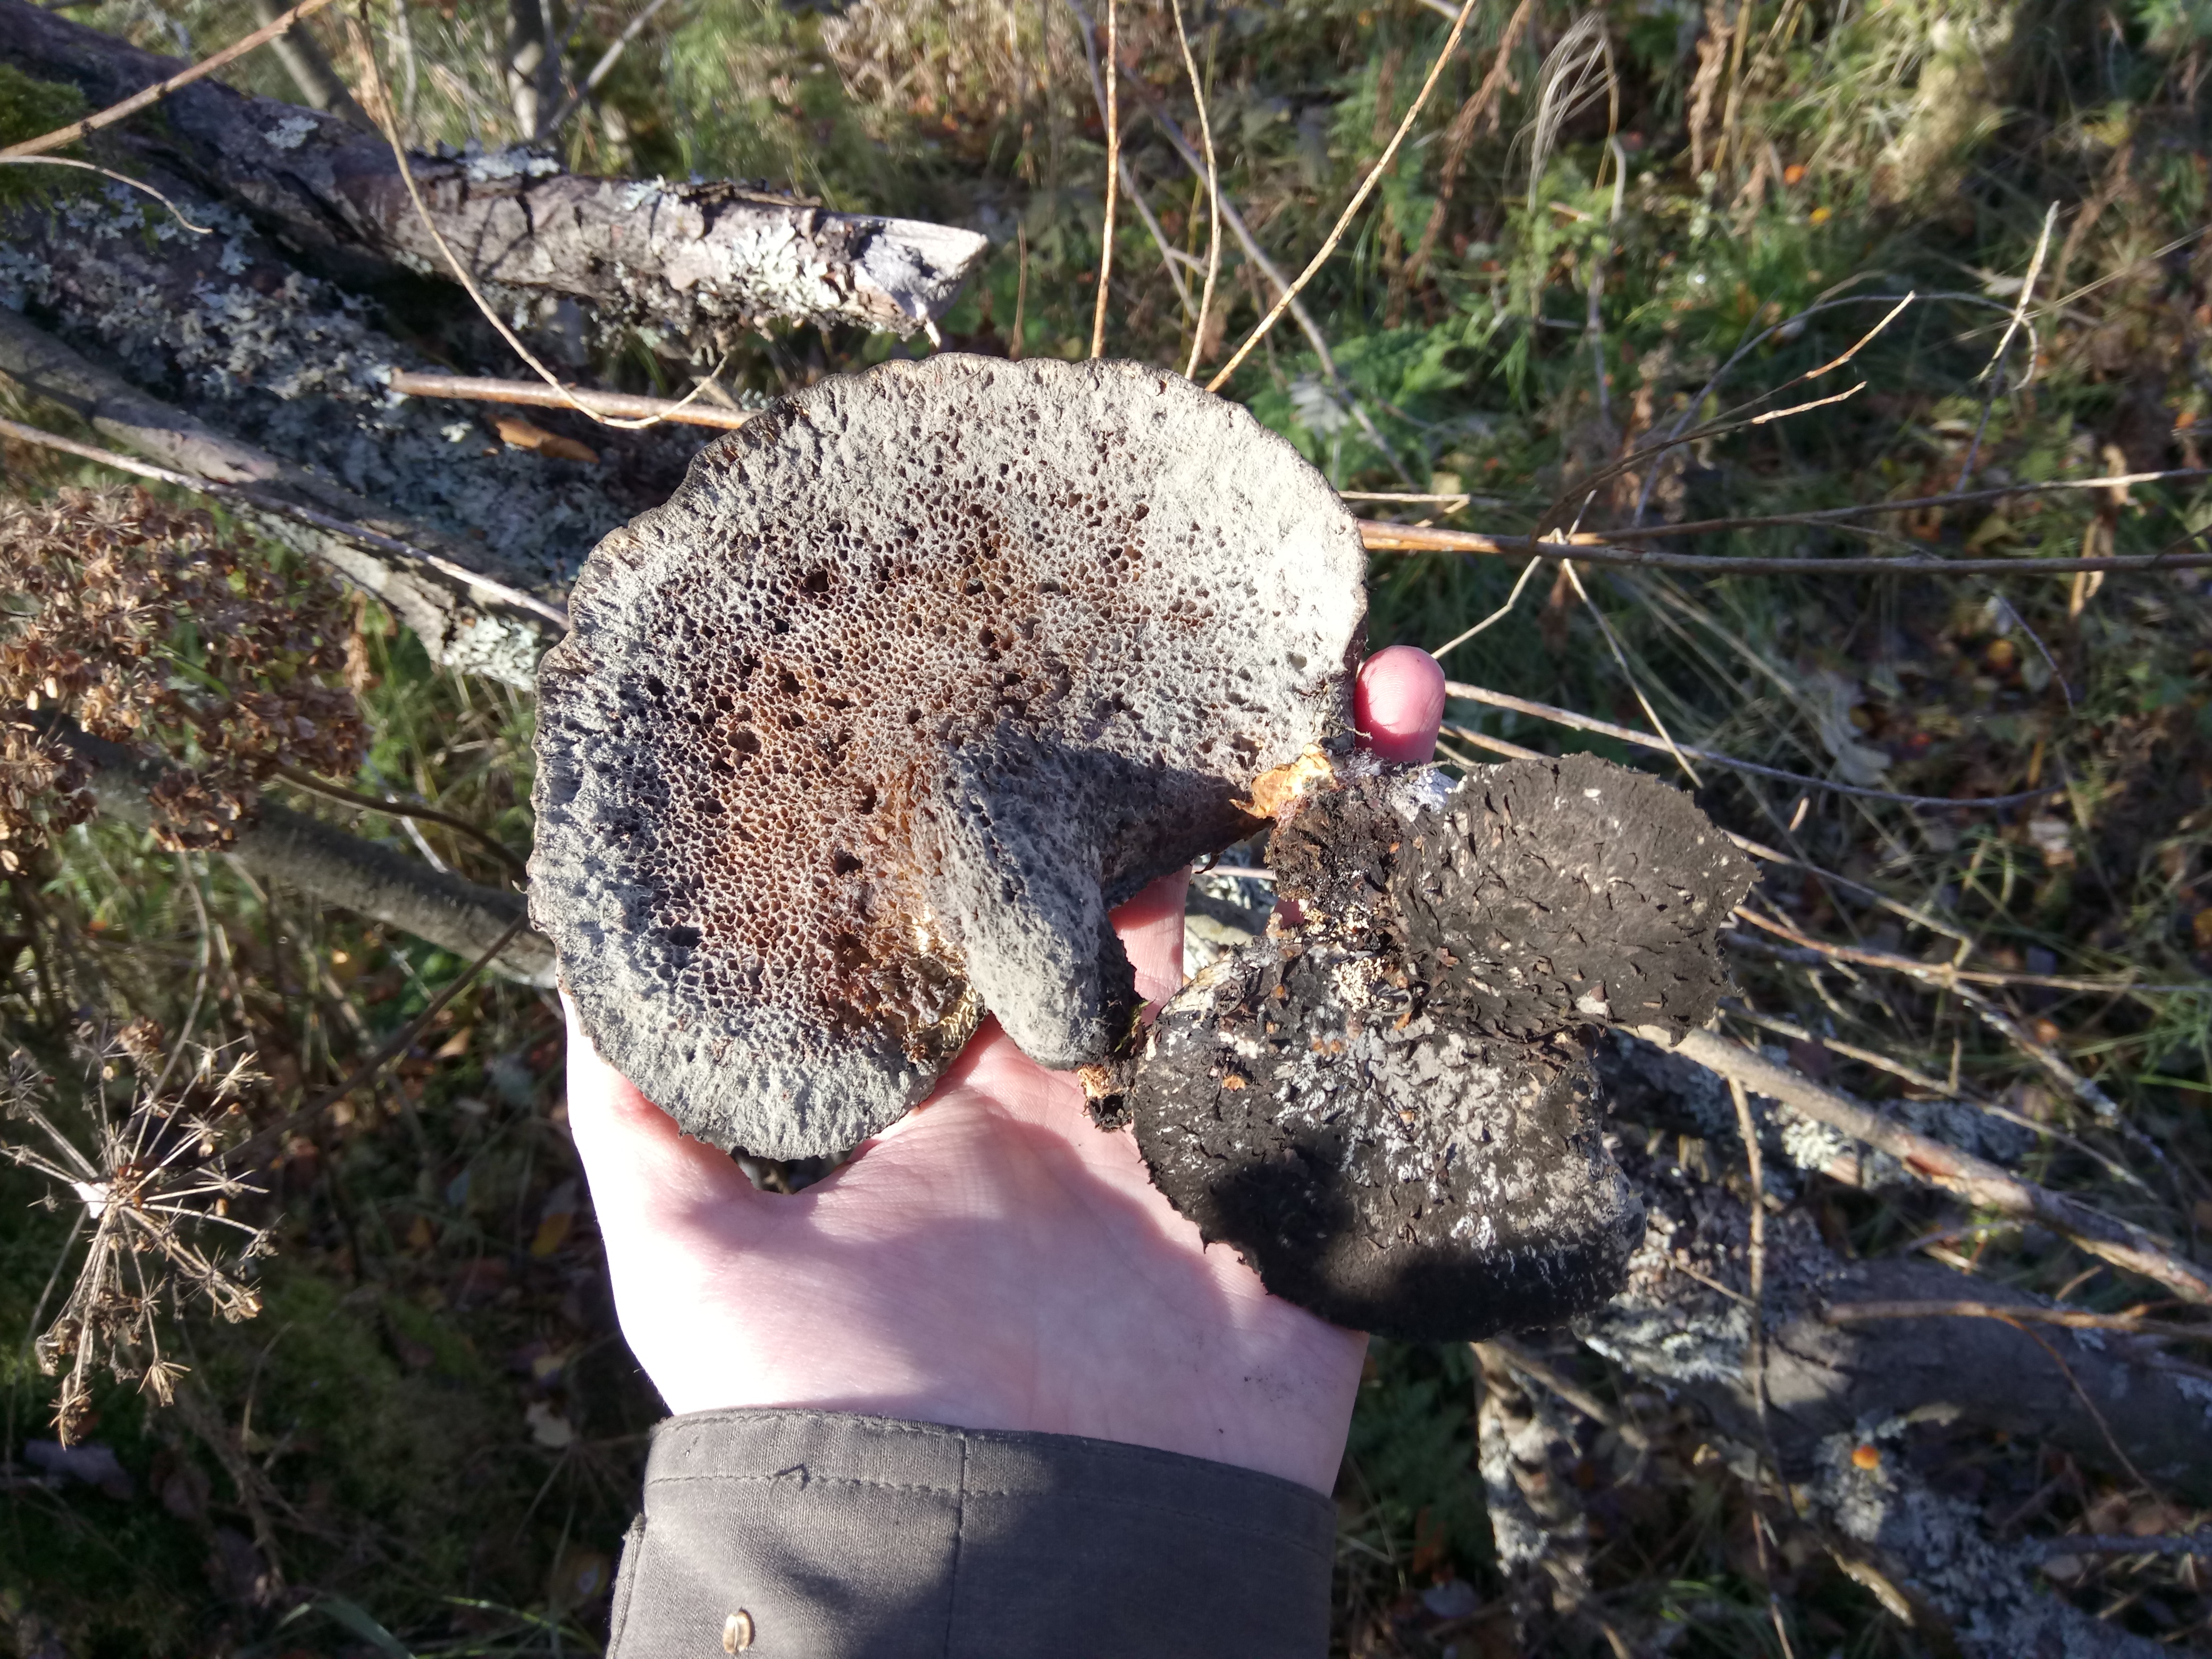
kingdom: Fungi
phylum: Basidiomycota
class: Agaricomycetes
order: Polyporales
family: Polyporaceae
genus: Cerioporus
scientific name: Cerioporus squamosus
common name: Dryad's saddle
